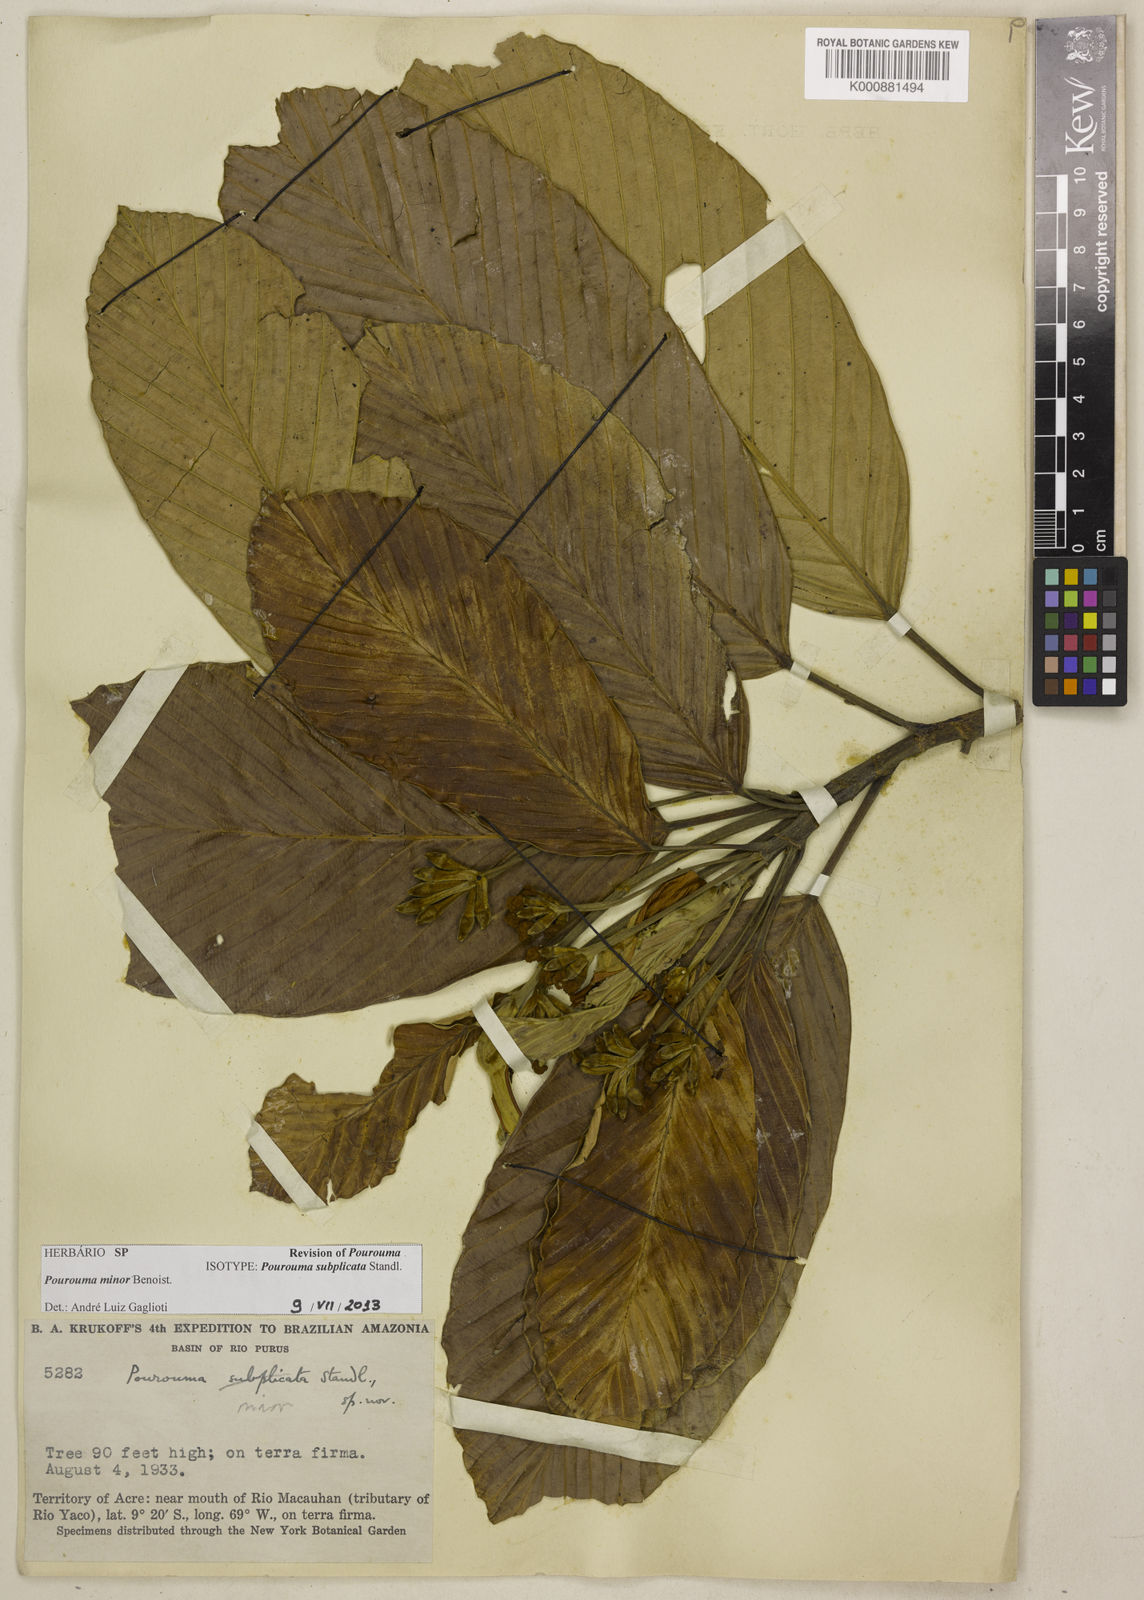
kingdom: Plantae
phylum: Tracheophyta
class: Magnoliopsida
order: Rosales
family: Urticaceae
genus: Pourouma
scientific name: Pourouma minor
